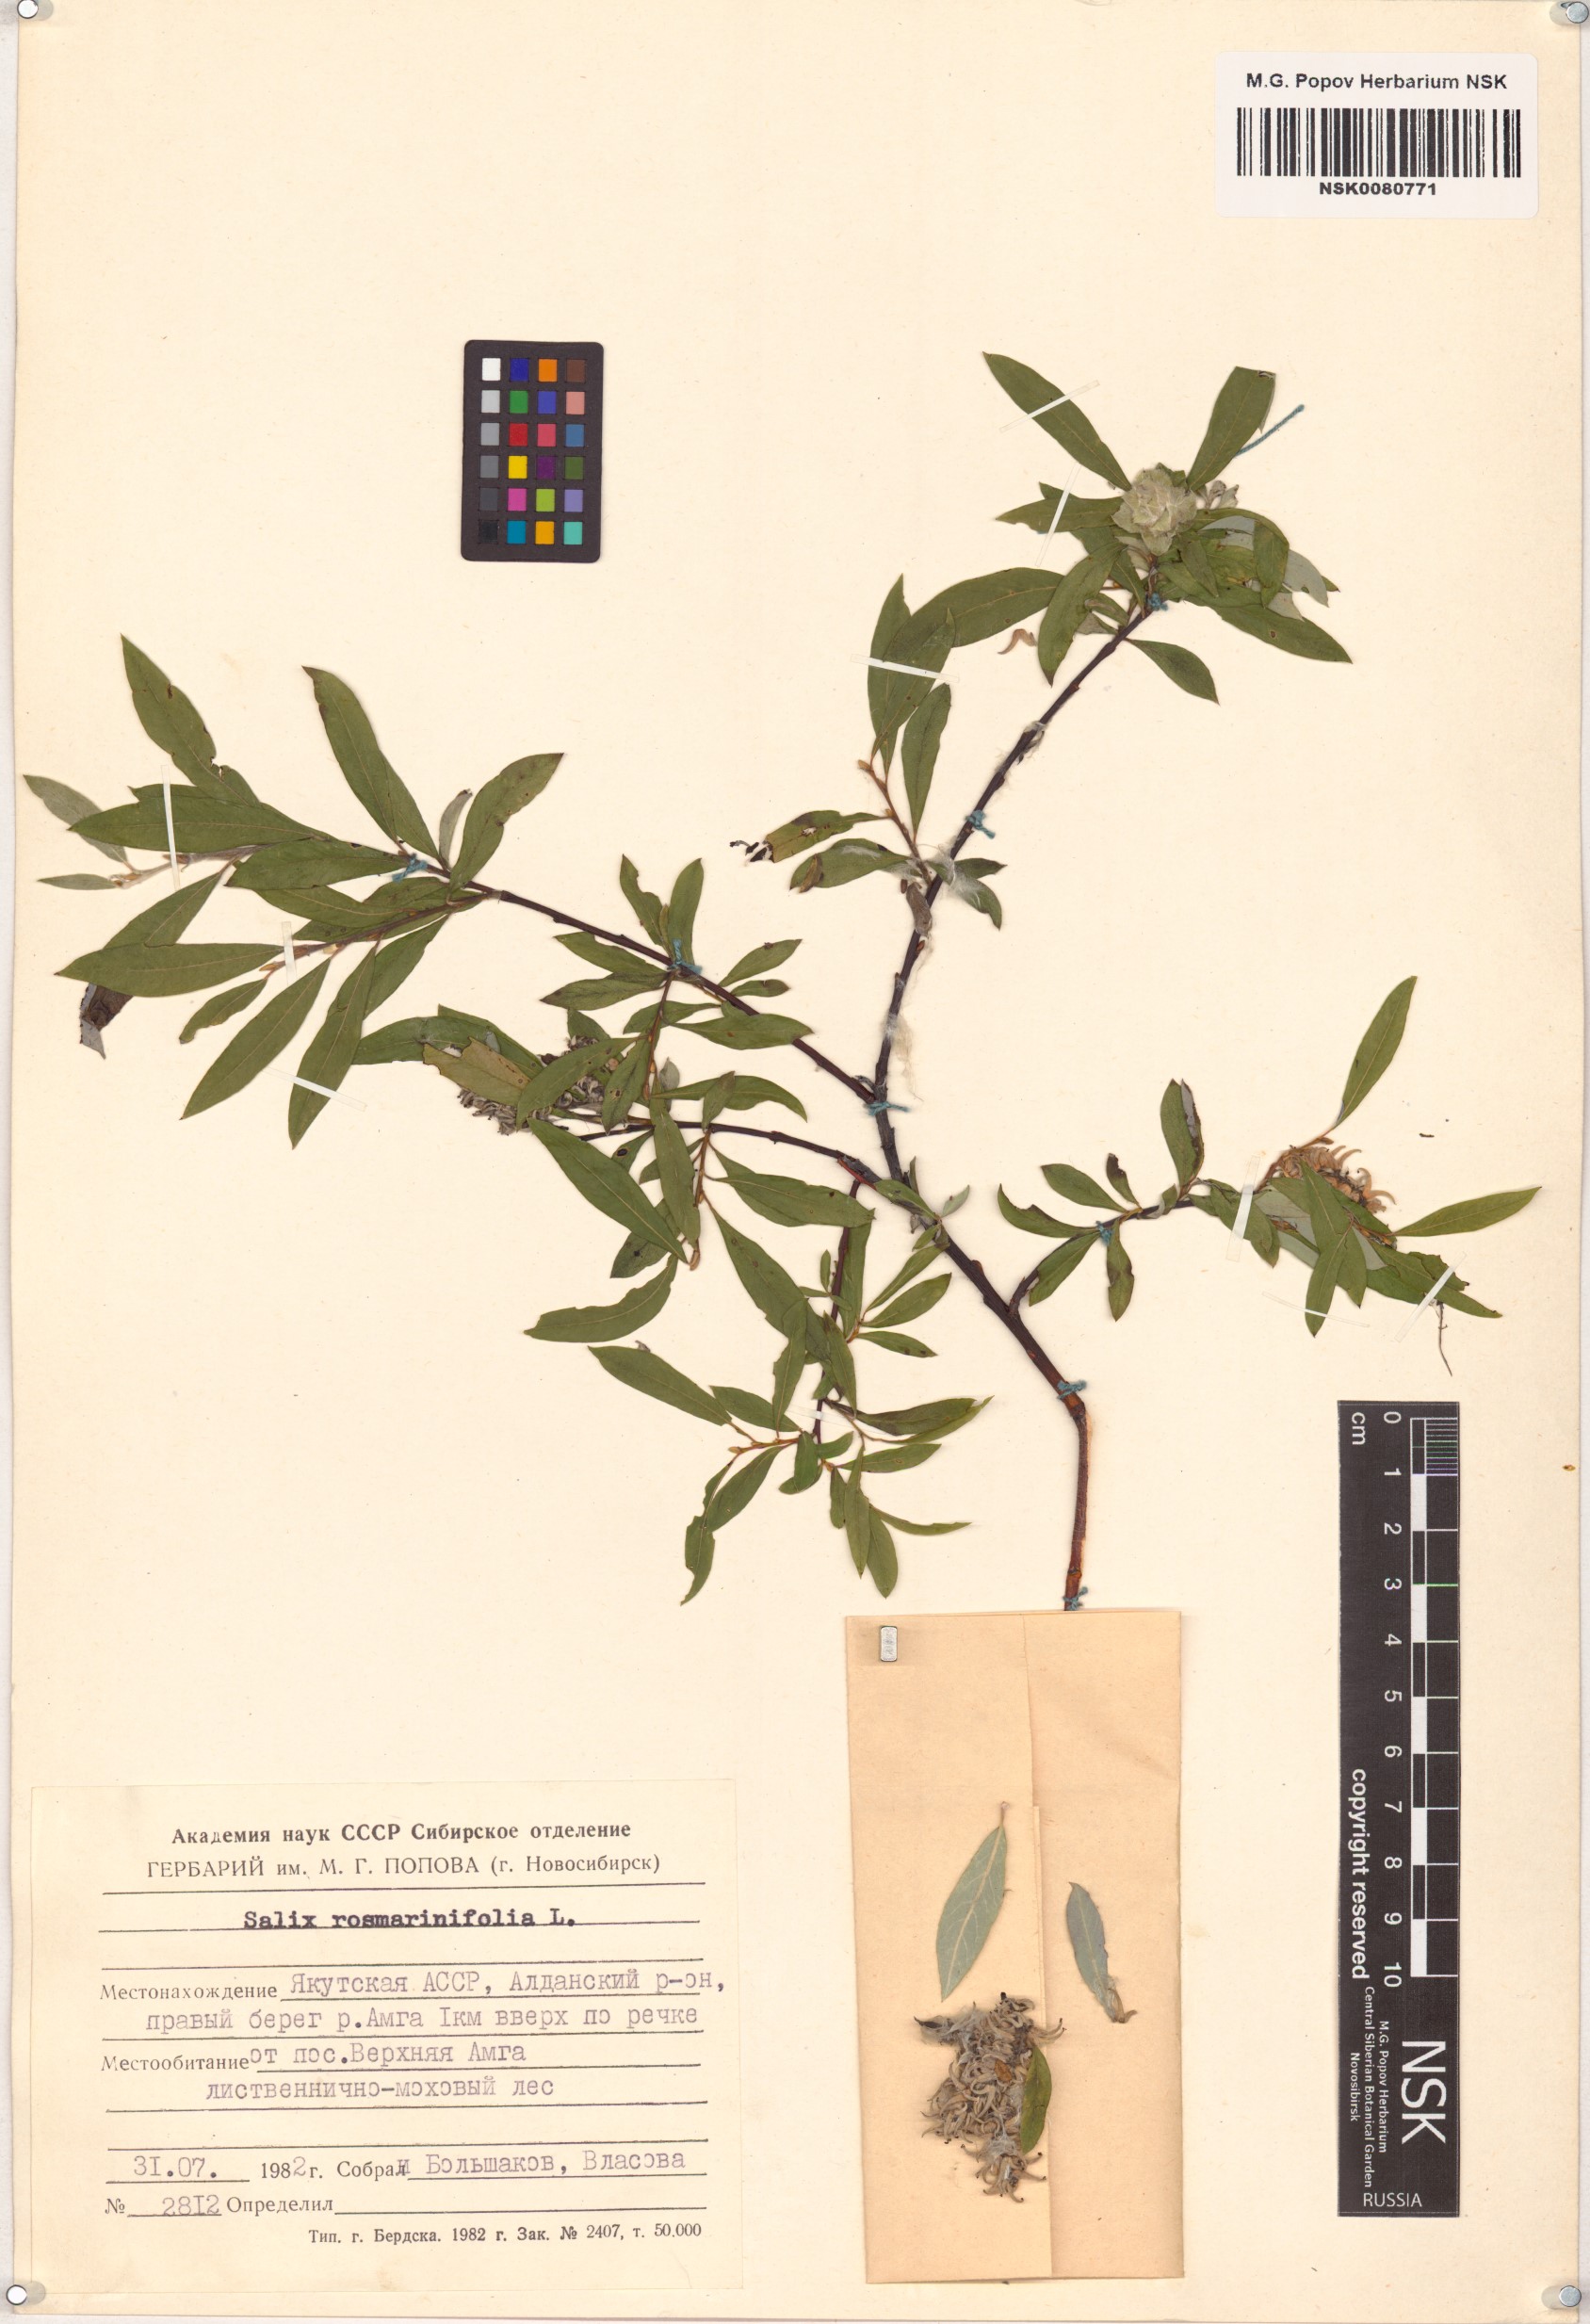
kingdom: Plantae
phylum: Tracheophyta
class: Magnoliopsida
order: Malpighiales
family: Salicaceae
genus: Salix
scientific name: Salix rosmarinifolia
